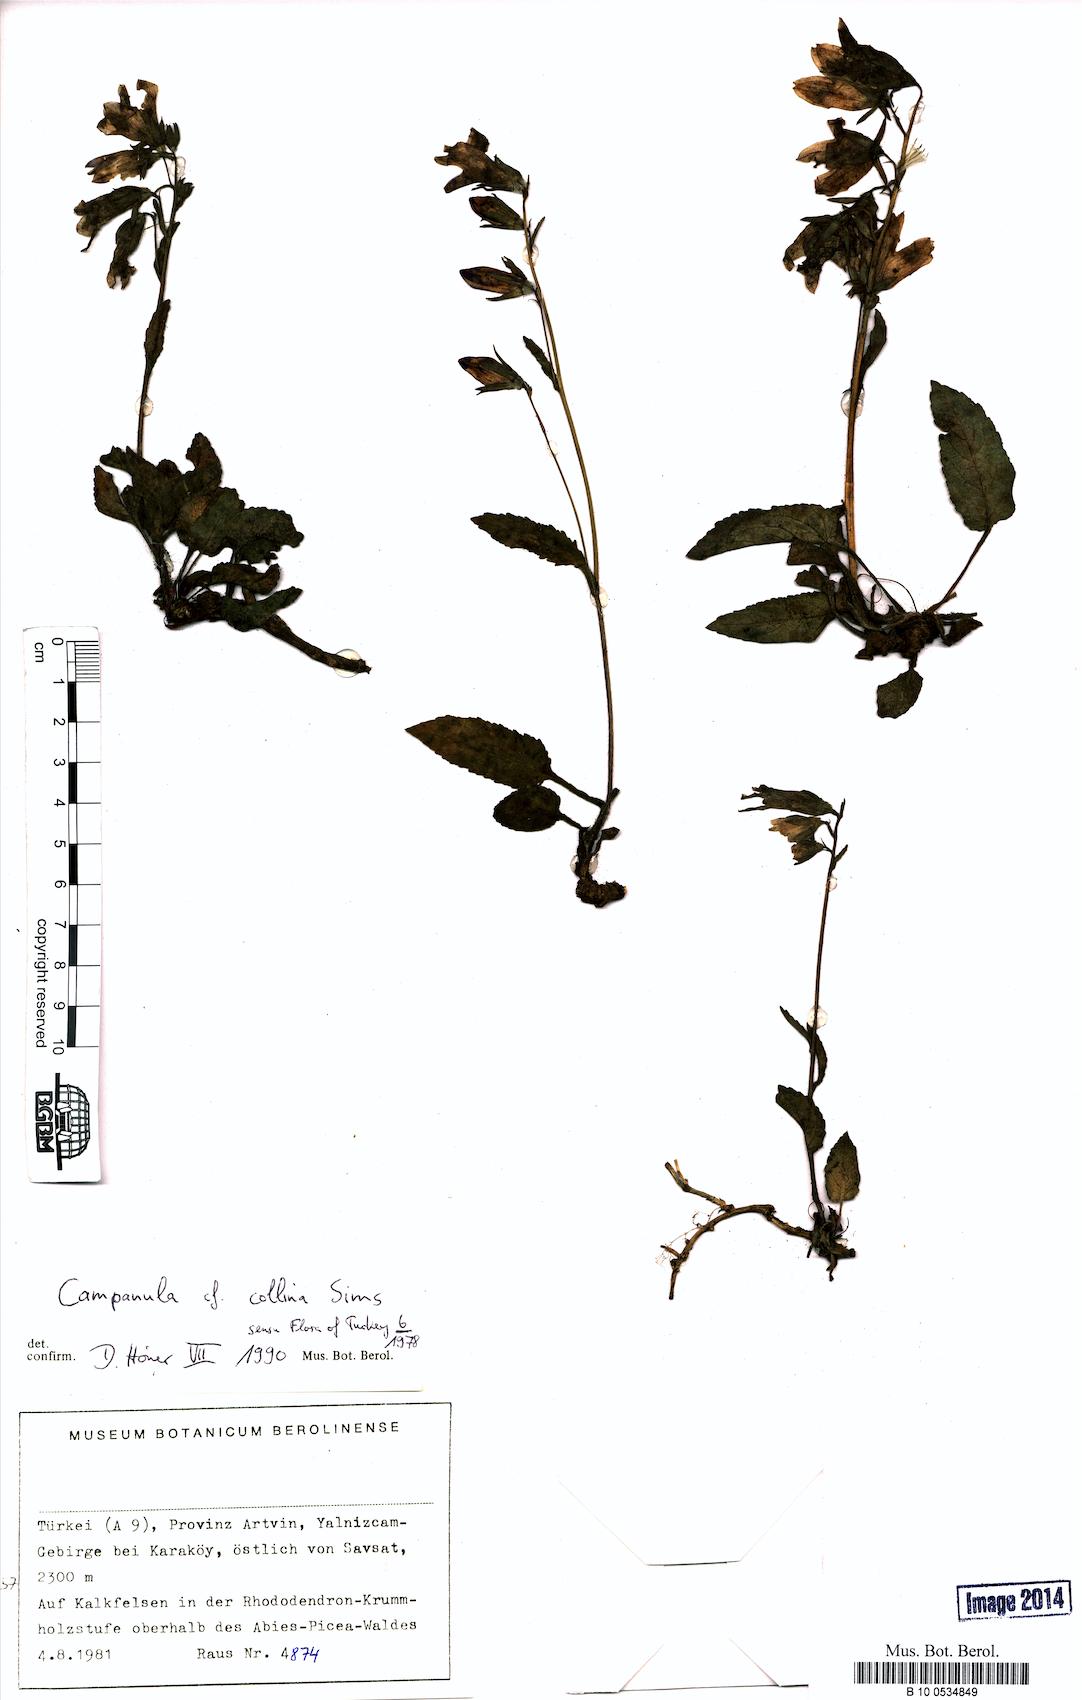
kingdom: Plantae
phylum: Tracheophyta
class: Magnoliopsida
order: Asterales
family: Campanulaceae
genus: Campanula
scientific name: Campanula collina
